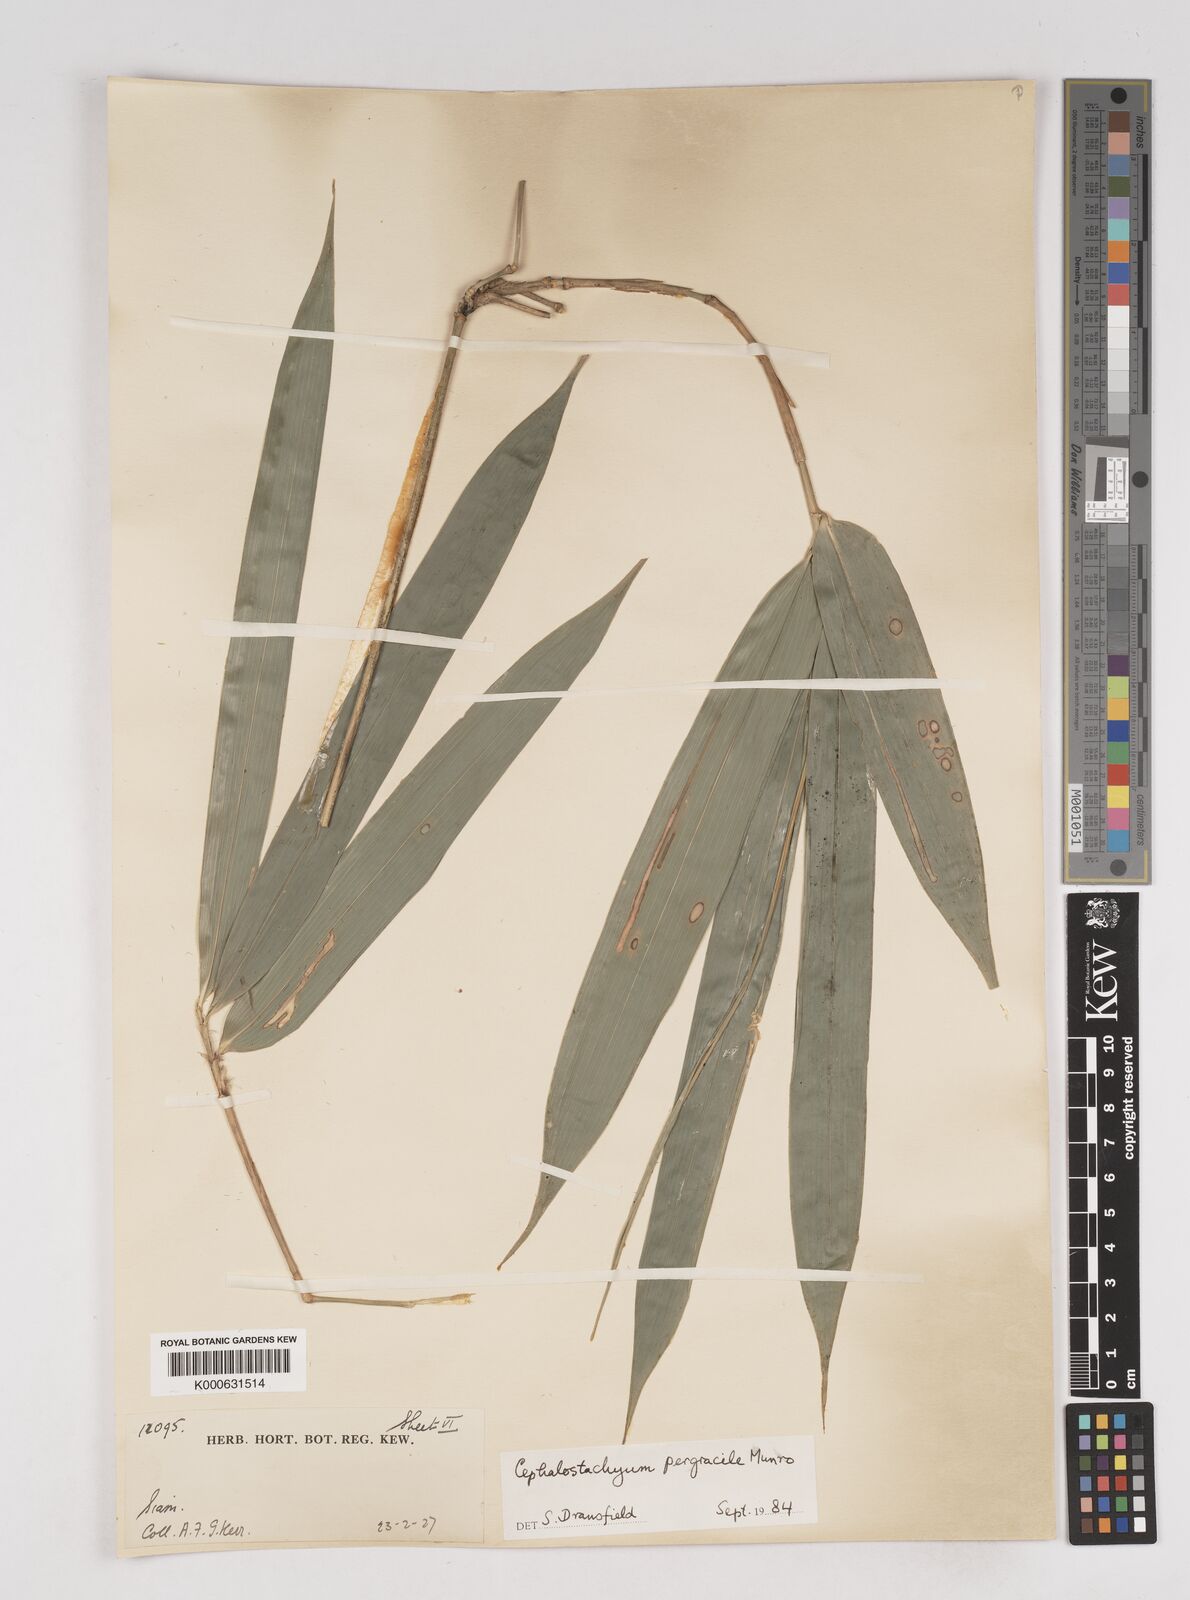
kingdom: Plantae
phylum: Tracheophyta
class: Liliopsida
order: Poales
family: Poaceae
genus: Schizostachyum
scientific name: Schizostachyum pergracile
